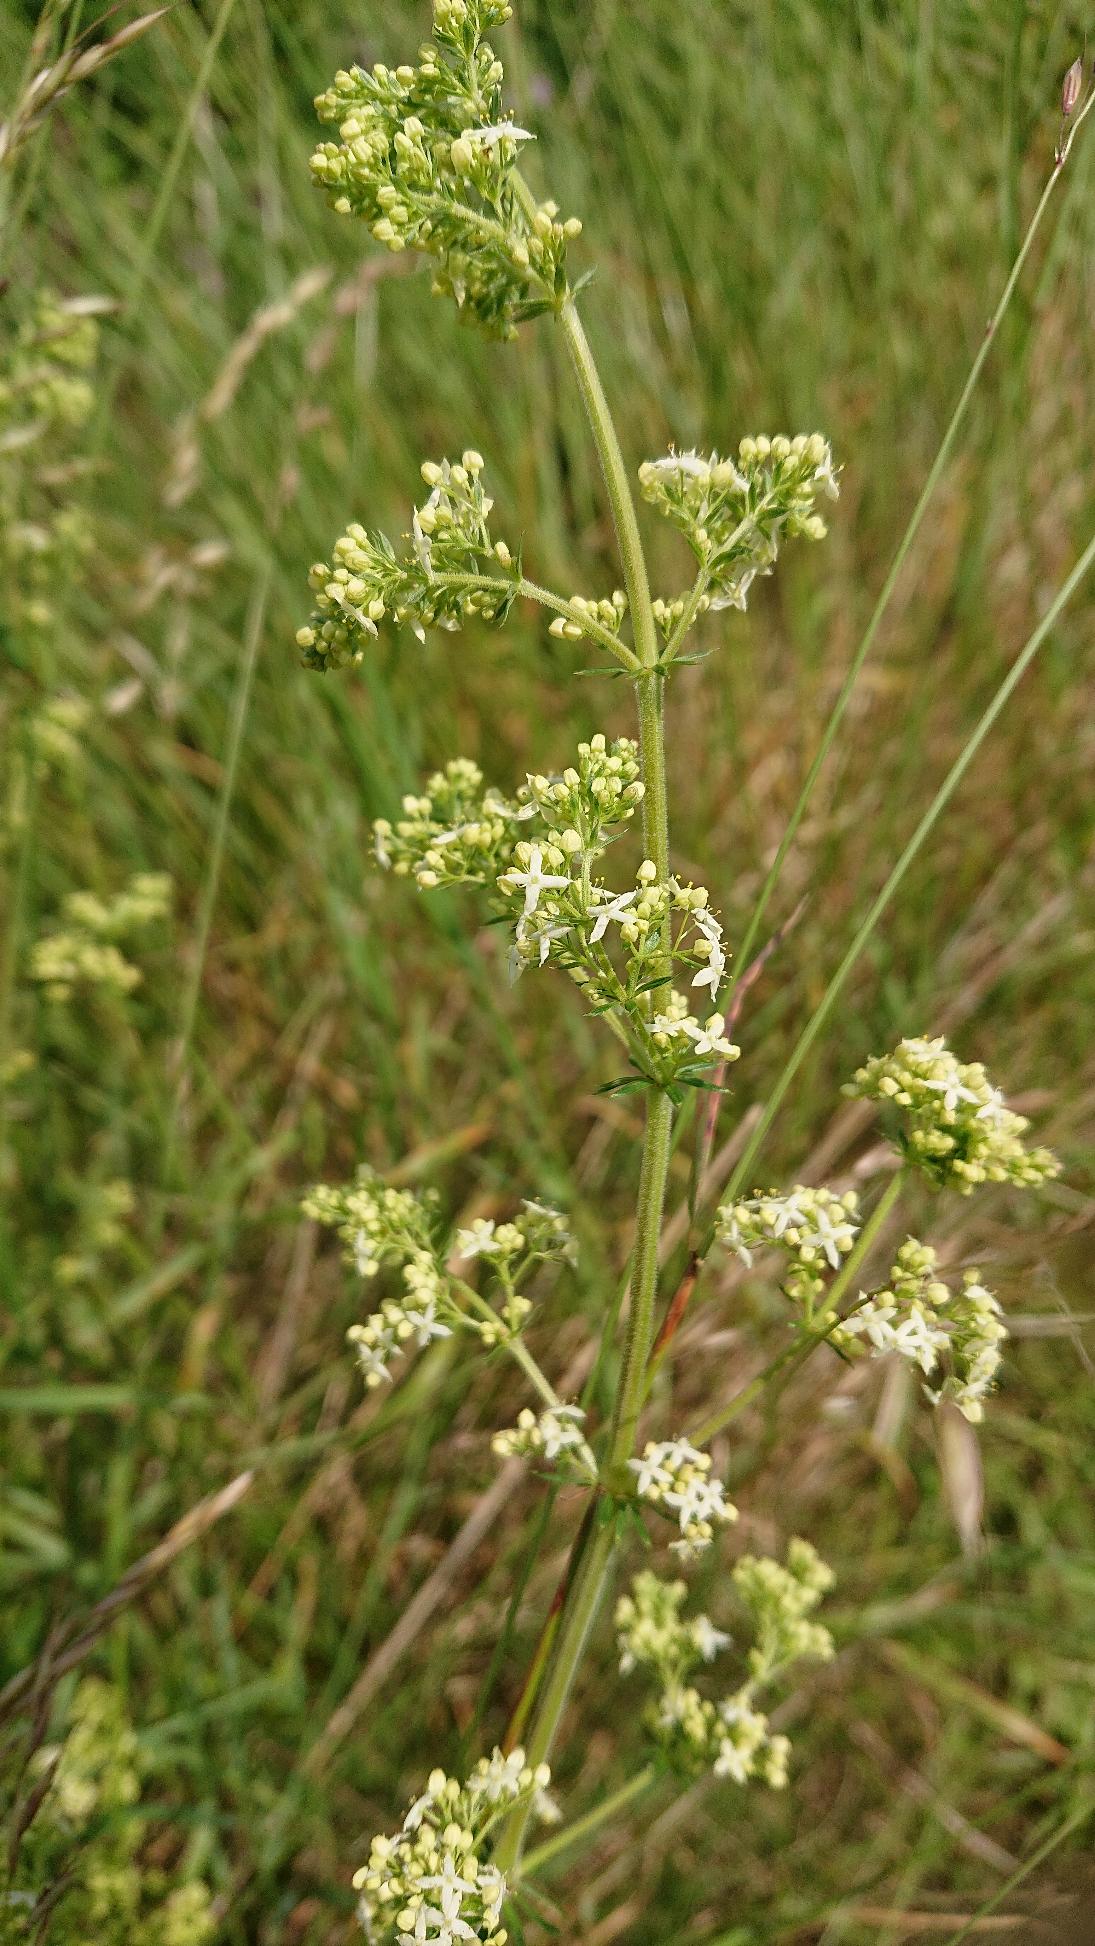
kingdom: Plantae
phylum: Tracheophyta
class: Magnoliopsida
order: Gentianales
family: Rubiaceae
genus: Galium
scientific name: Galium mollugo
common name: Hvid snerre
